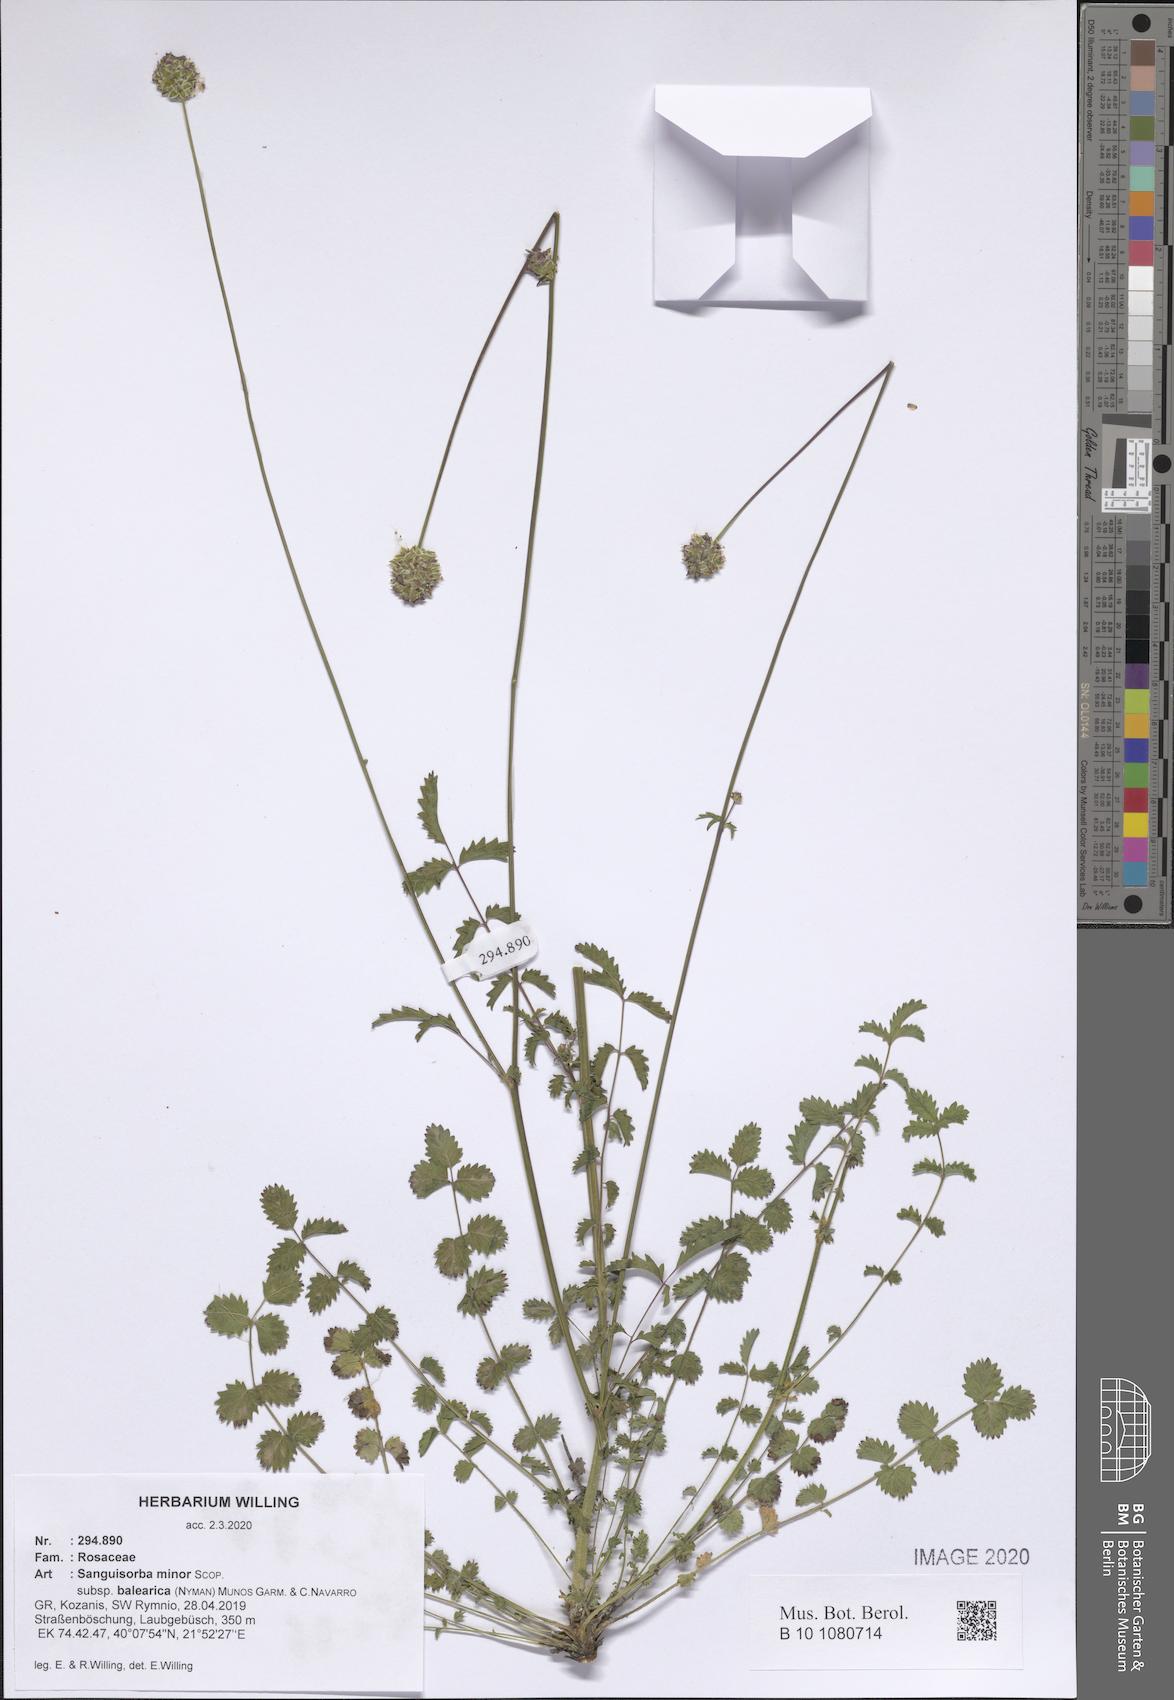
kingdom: Plantae
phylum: Tracheophyta
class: Magnoliopsida
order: Rosales
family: Rosaceae
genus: Poterium
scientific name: Poterium sanguisorba
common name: Salad burnet
